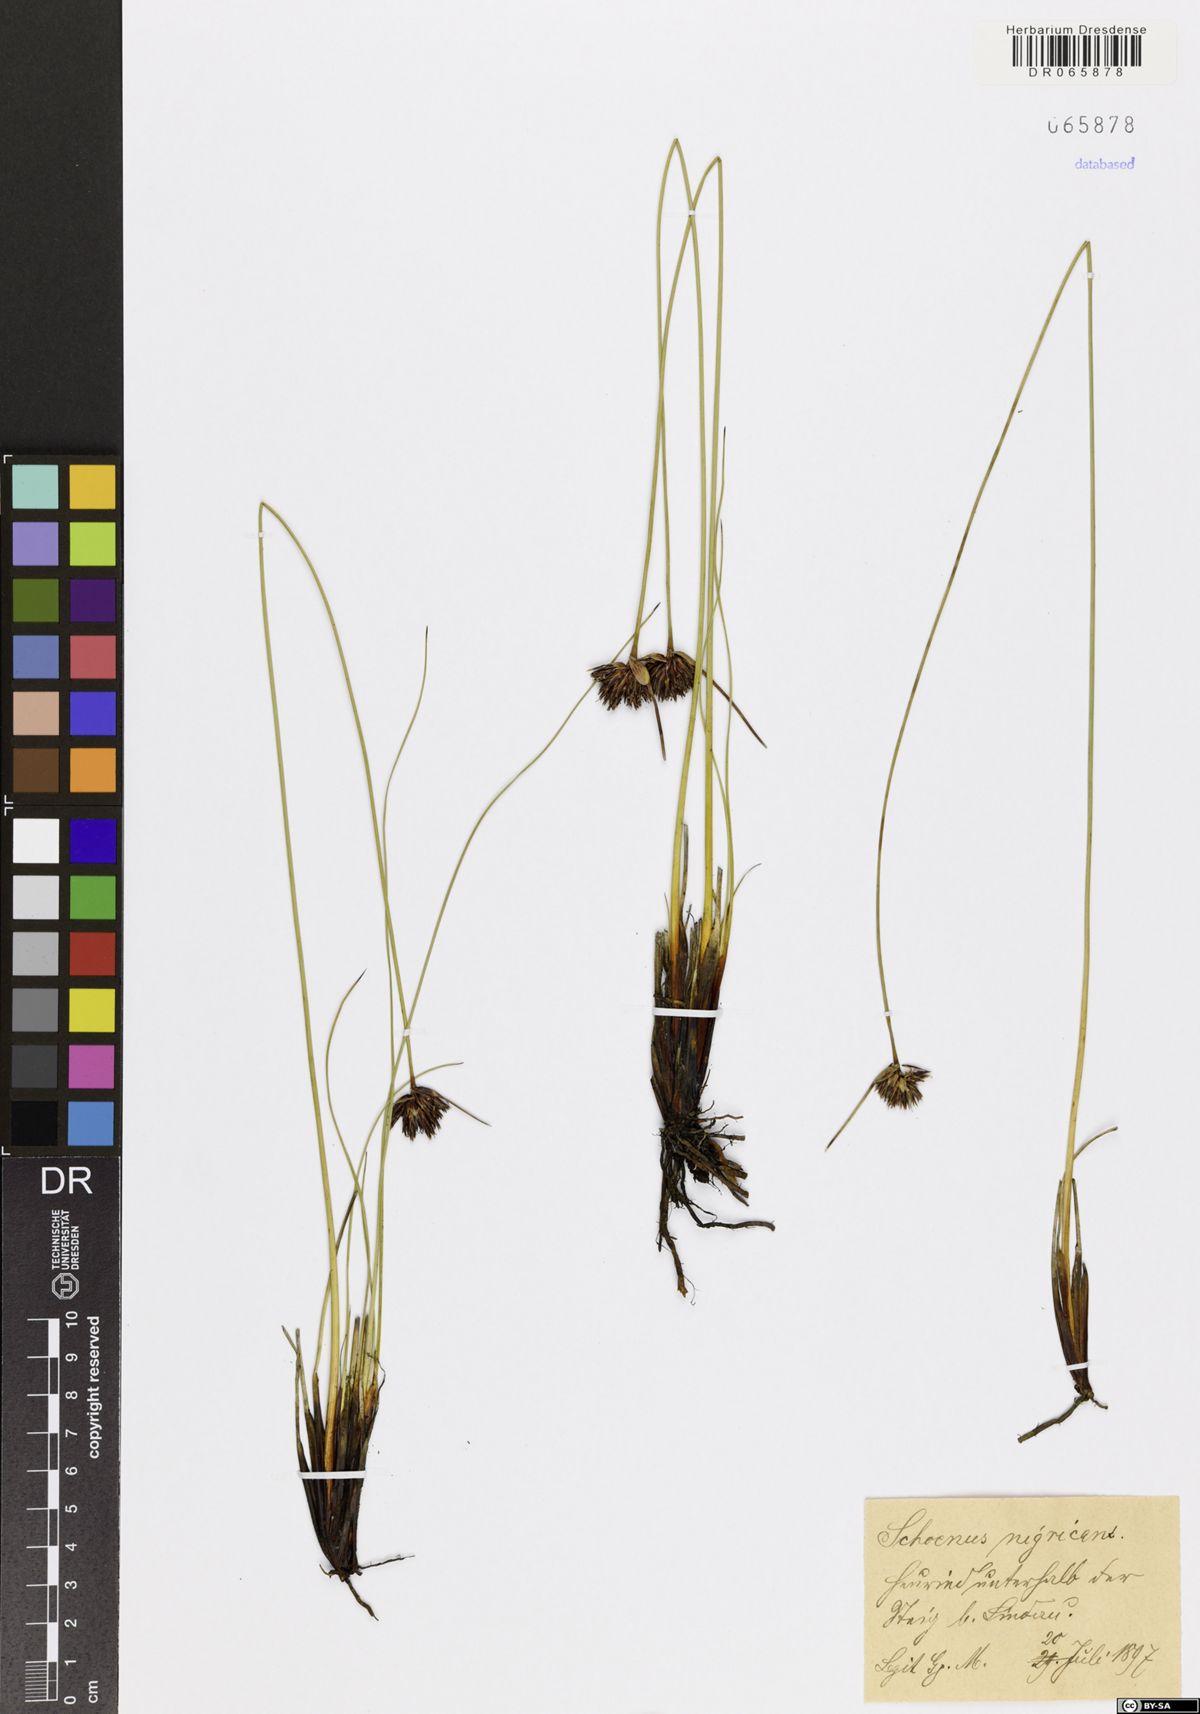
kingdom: Plantae
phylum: Tracheophyta
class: Liliopsida
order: Poales
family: Cyperaceae
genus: Schoenus
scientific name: Schoenus nigricans
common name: Black bog-rush
